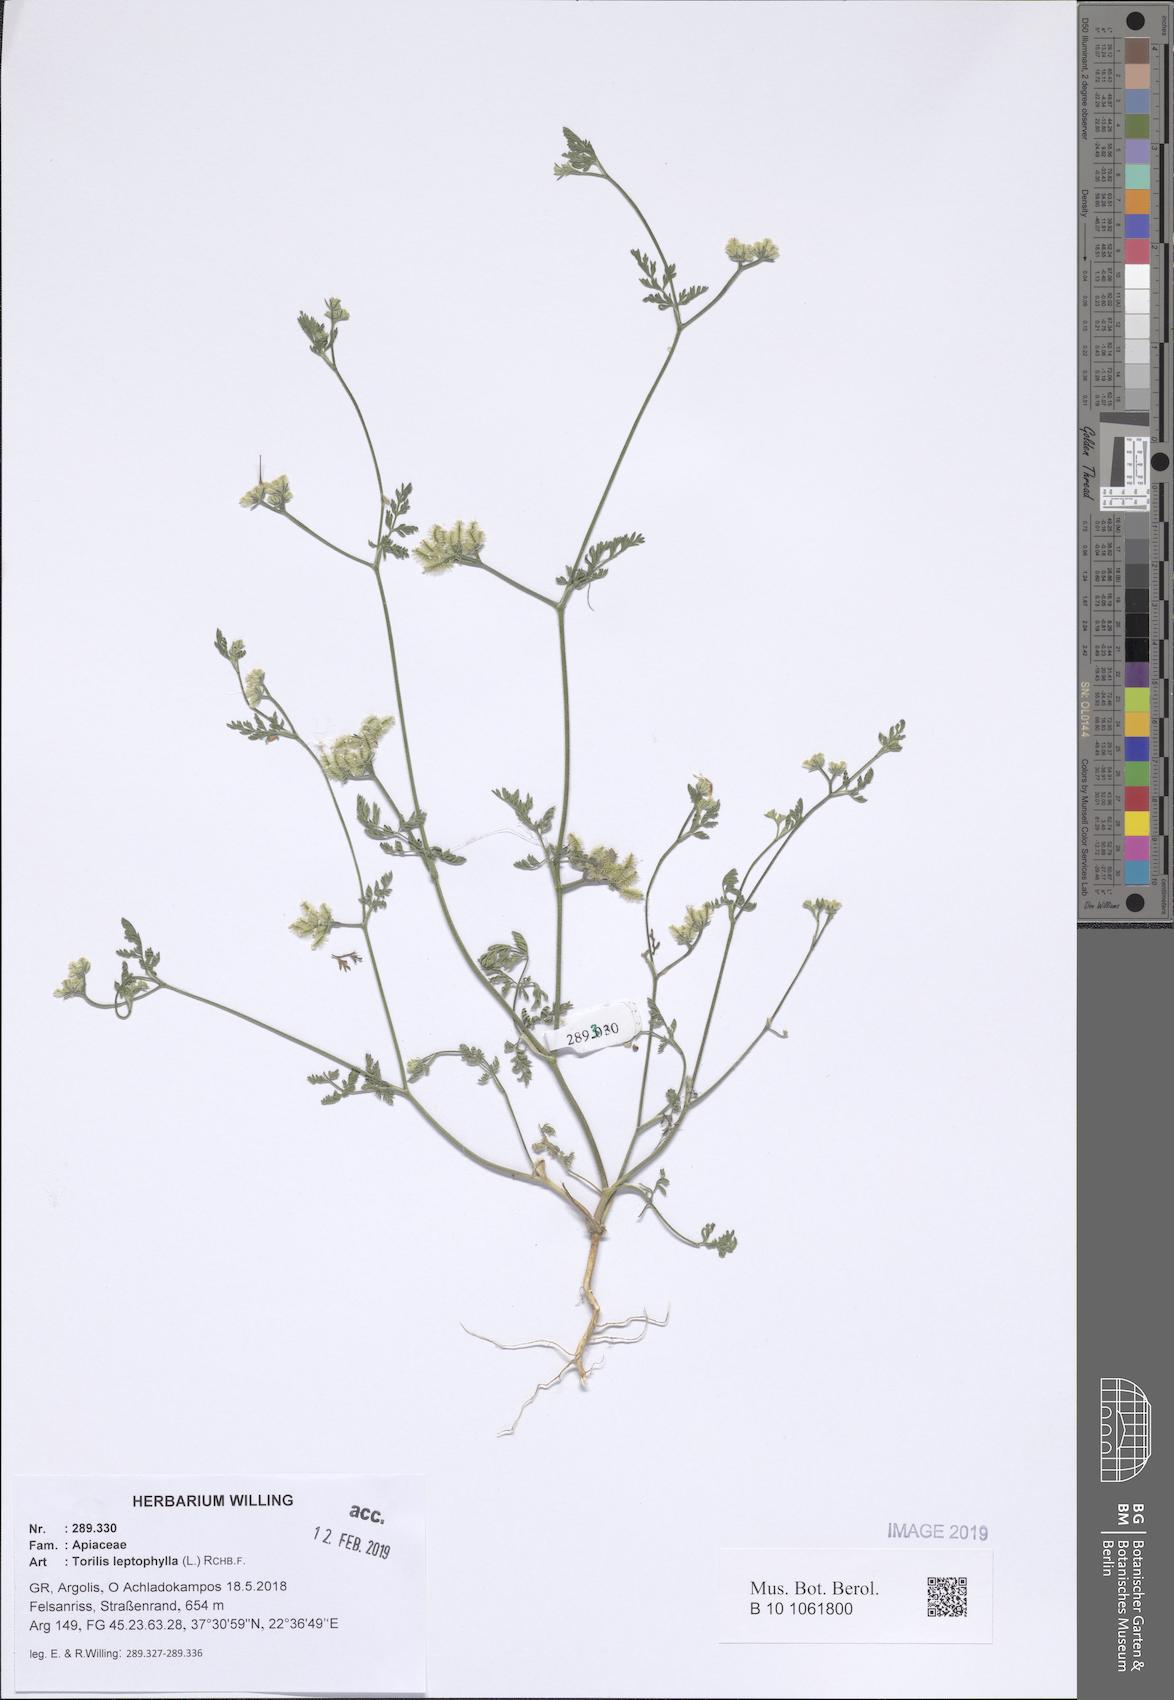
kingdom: Plantae
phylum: Tracheophyta
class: Magnoliopsida
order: Apiales
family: Apiaceae
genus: Torilis
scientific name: Torilis leptophylla
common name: Bristlefruit hedgeparsley
